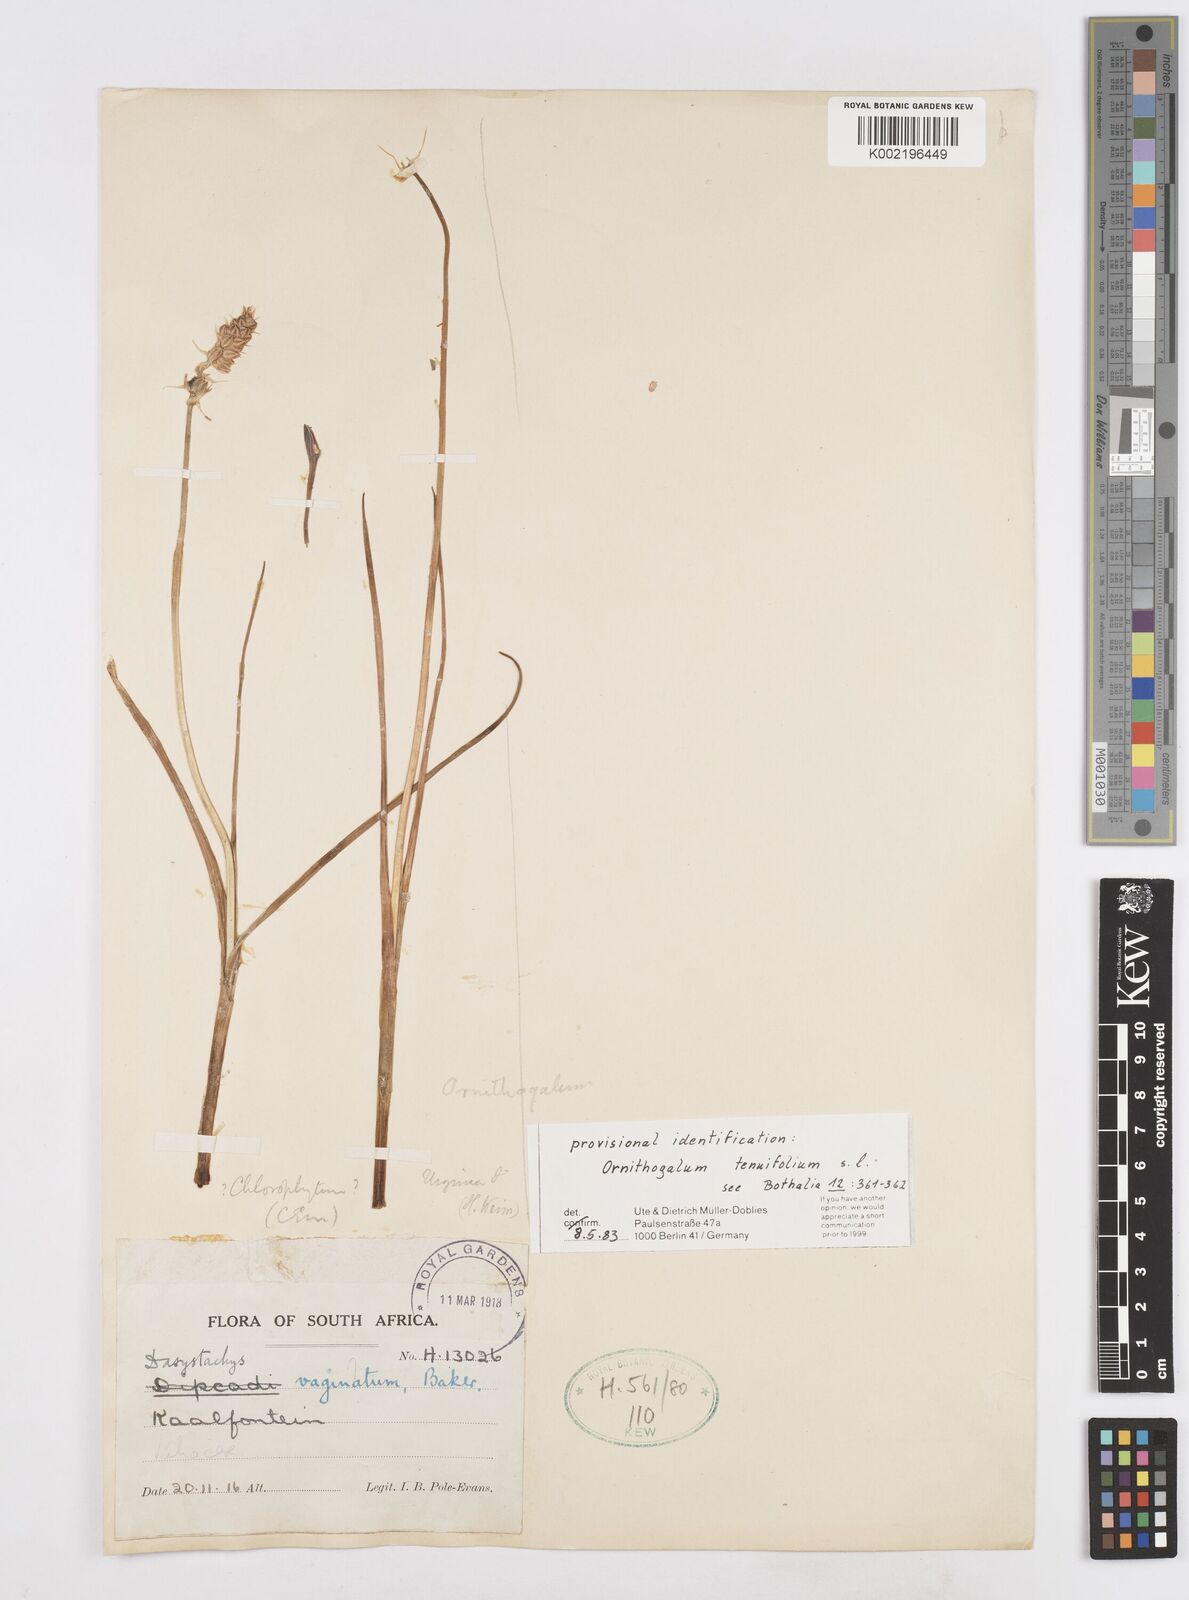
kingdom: Plantae
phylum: Tracheophyta
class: Liliopsida
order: Asparagales
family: Asparagaceae
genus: Albuca
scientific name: Albuca virens
